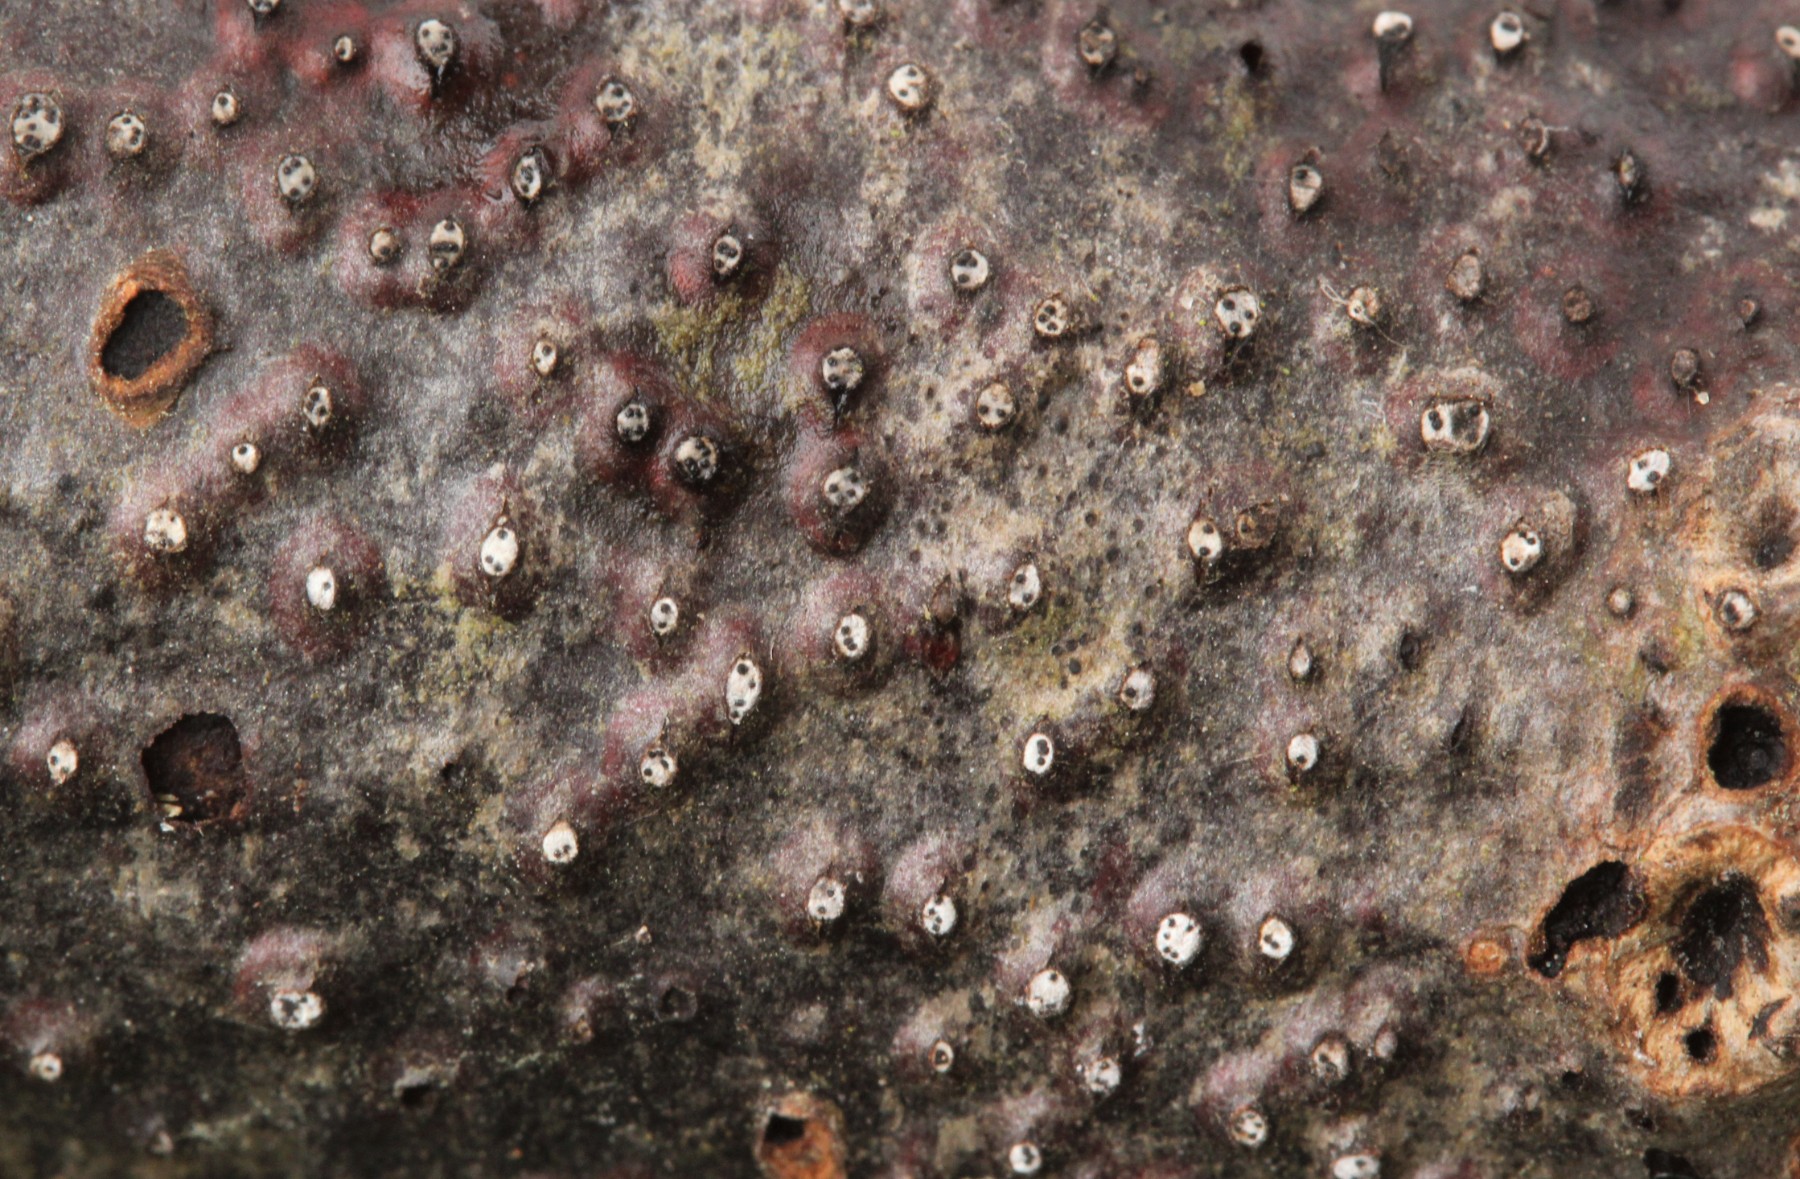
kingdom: Fungi
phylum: Ascomycota
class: Sordariomycetes
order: Diaporthales
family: Valsaceae
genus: Cytospora
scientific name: Cytospora nivea
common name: hvidskivet kulknippe
